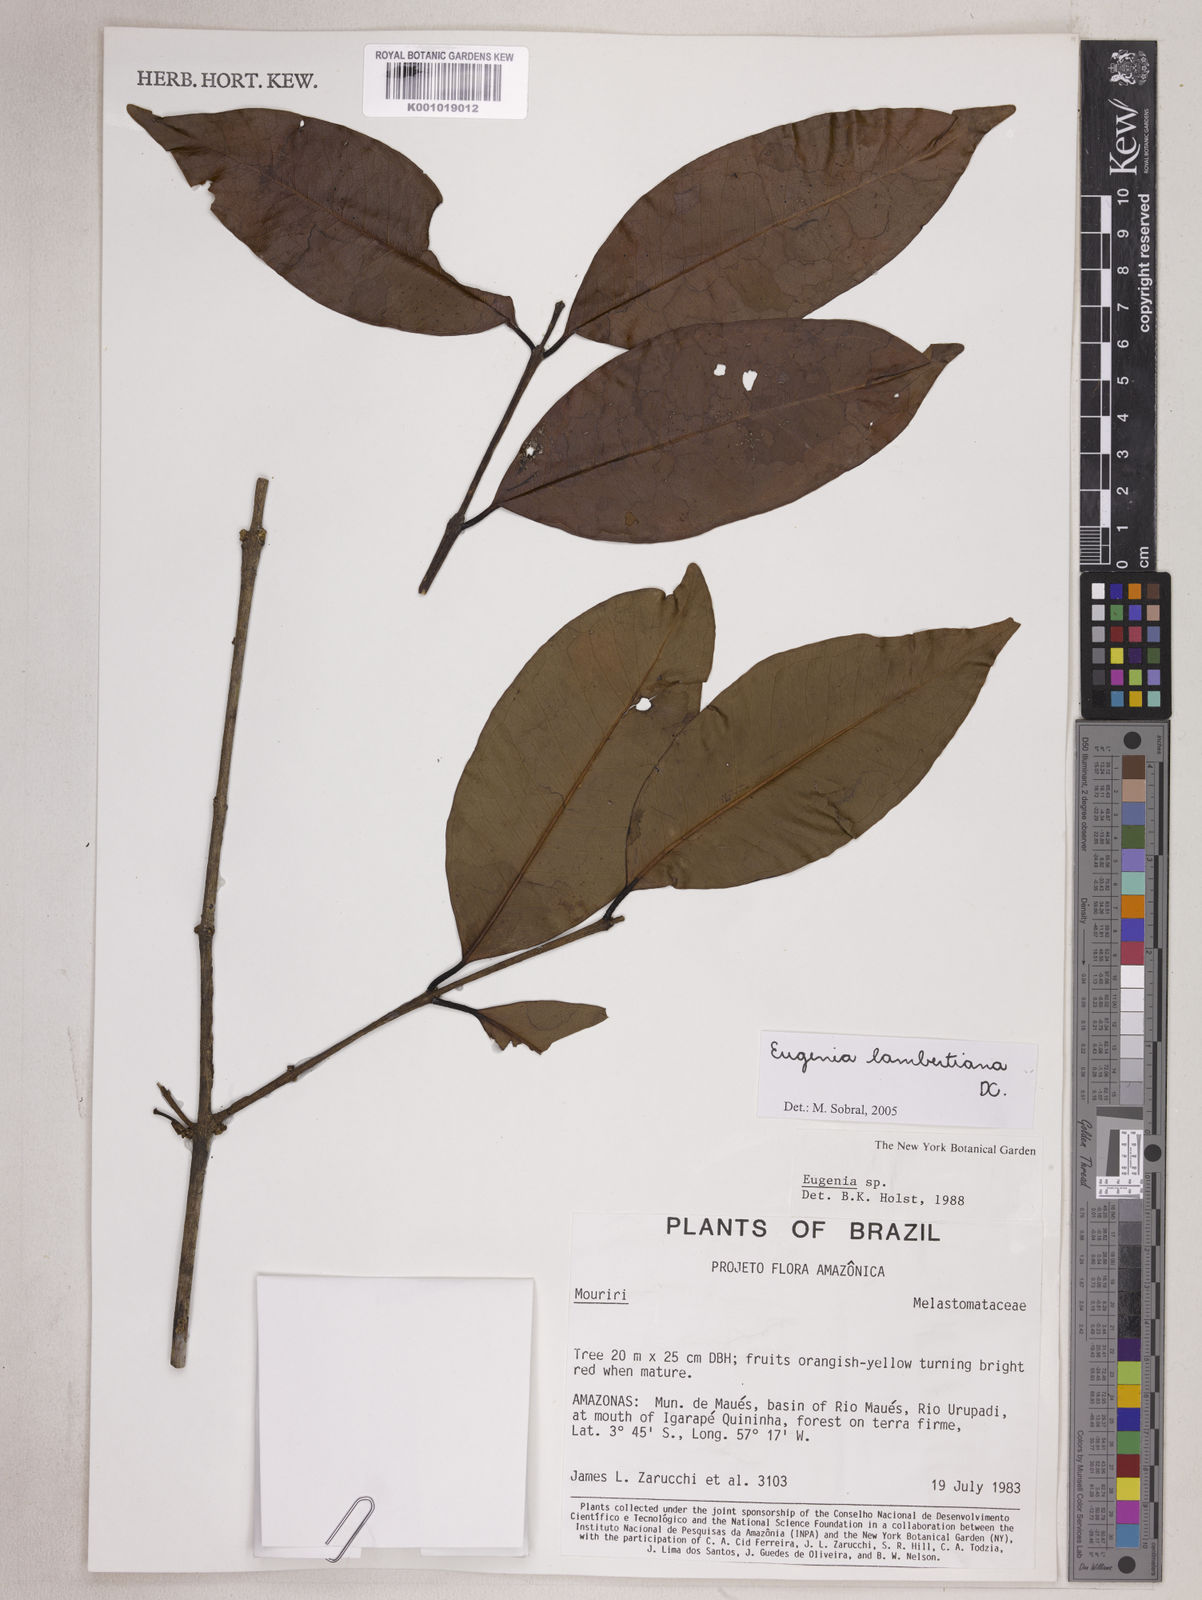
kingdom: Plantae
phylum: Tracheophyta
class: Magnoliopsida
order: Myrtales
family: Myrtaceae
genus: Eugenia
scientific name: Eugenia lambertiana
